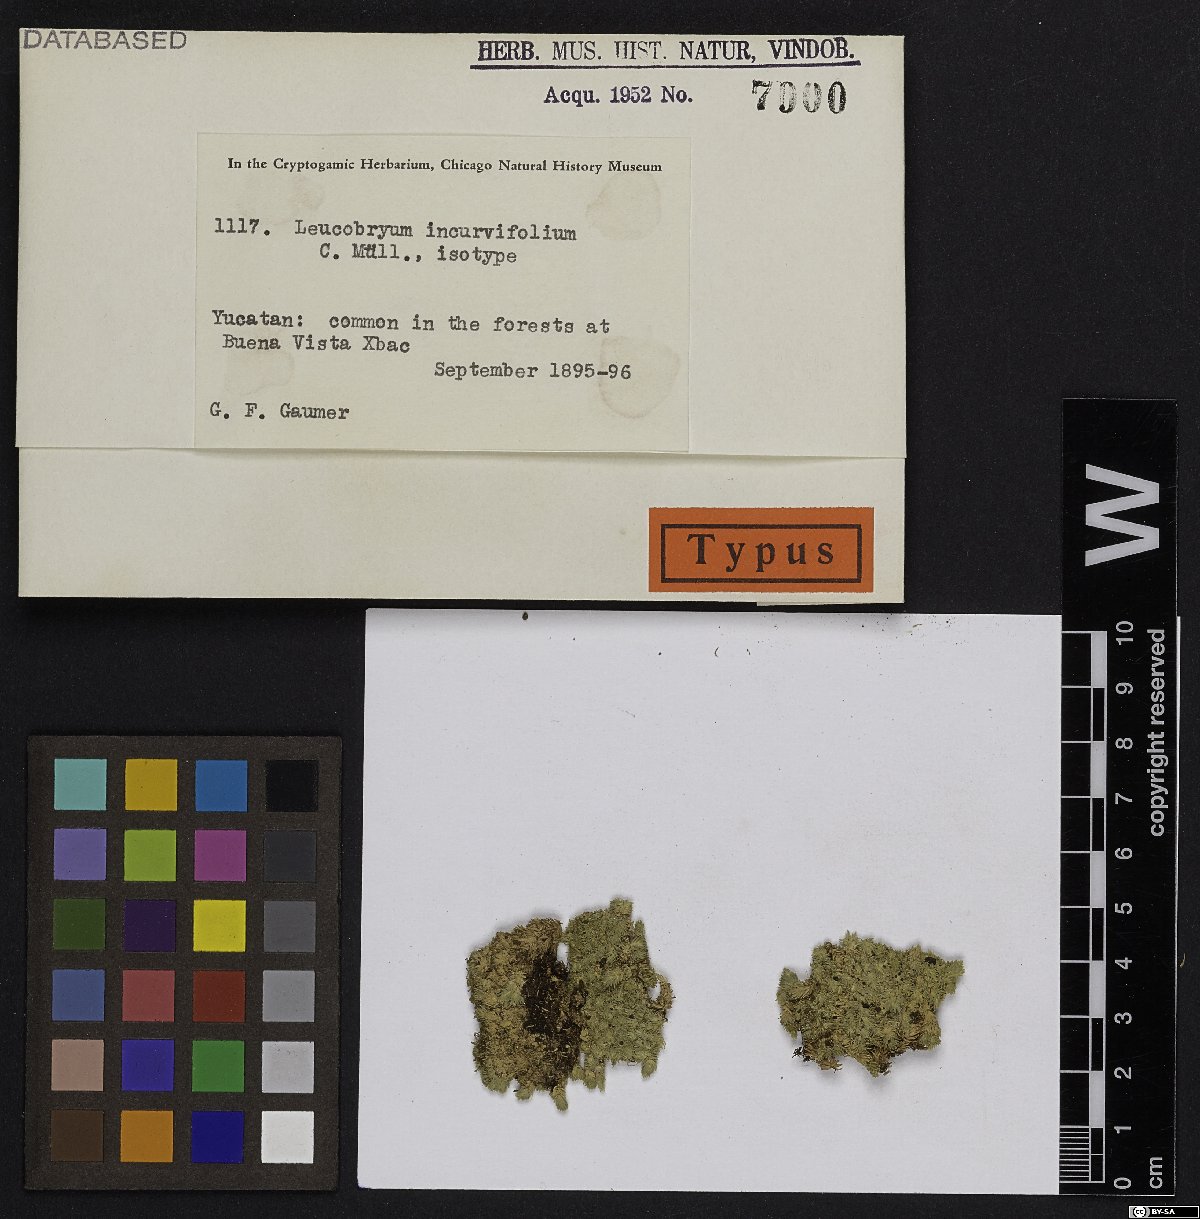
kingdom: Plantae
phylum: Bryophyta
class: Bryopsida
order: Dicranales
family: Leucobryaceae
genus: Leucobryum
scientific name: Leucobryum incurvifolium
